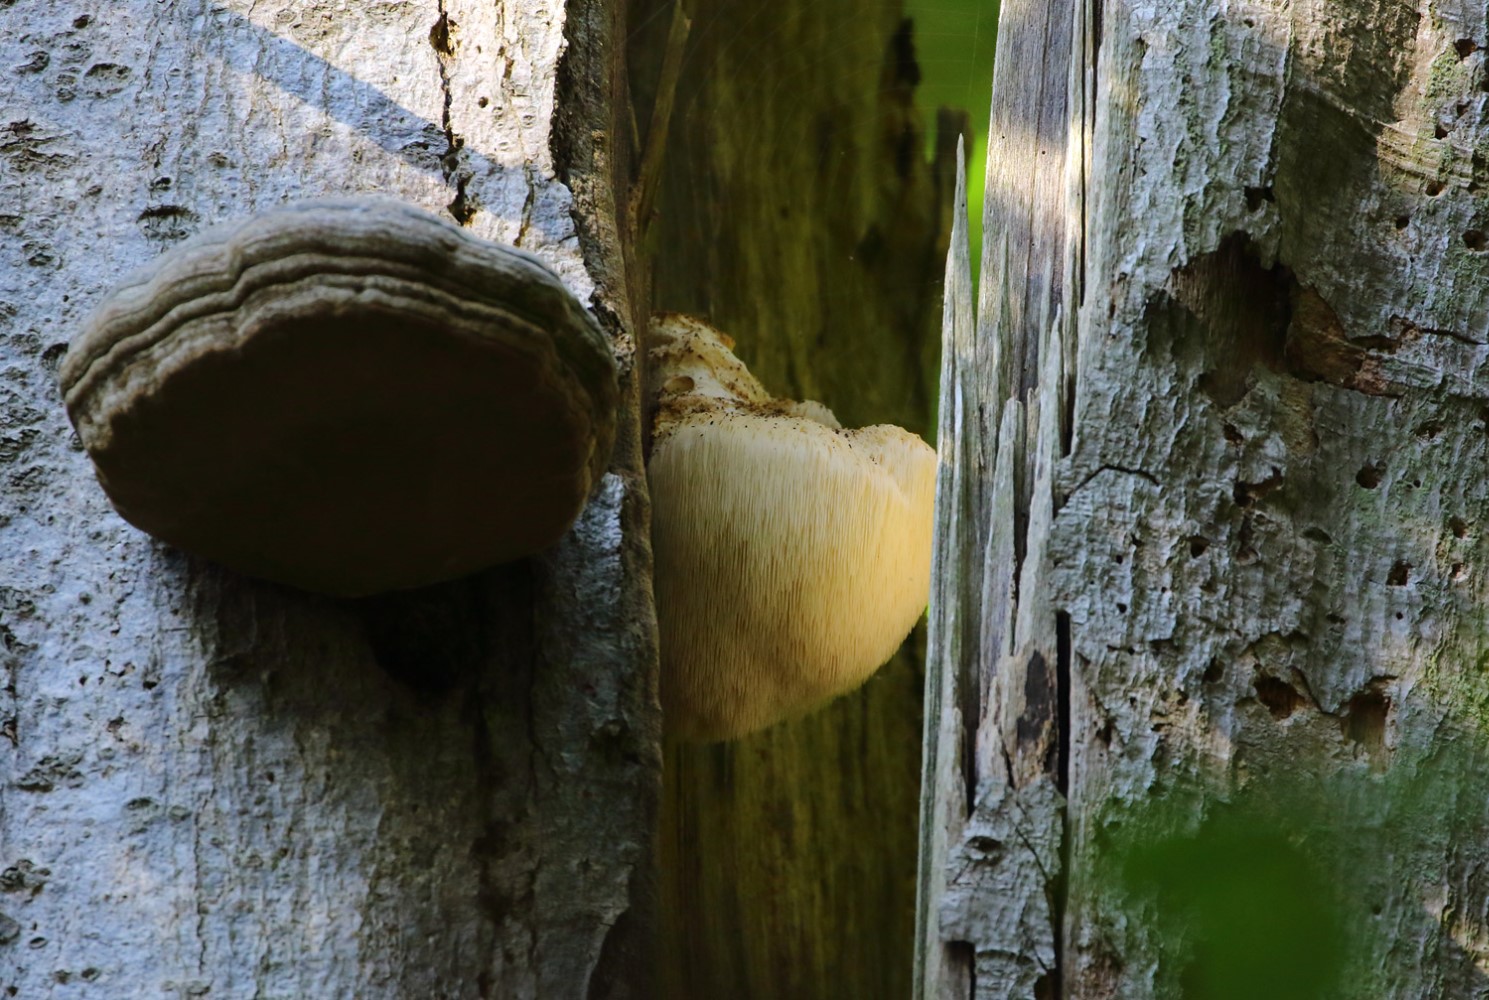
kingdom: Fungi
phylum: Basidiomycota
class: Agaricomycetes
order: Russulales
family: Hericiaceae
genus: Hericium
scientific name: Hericium erinaceus
